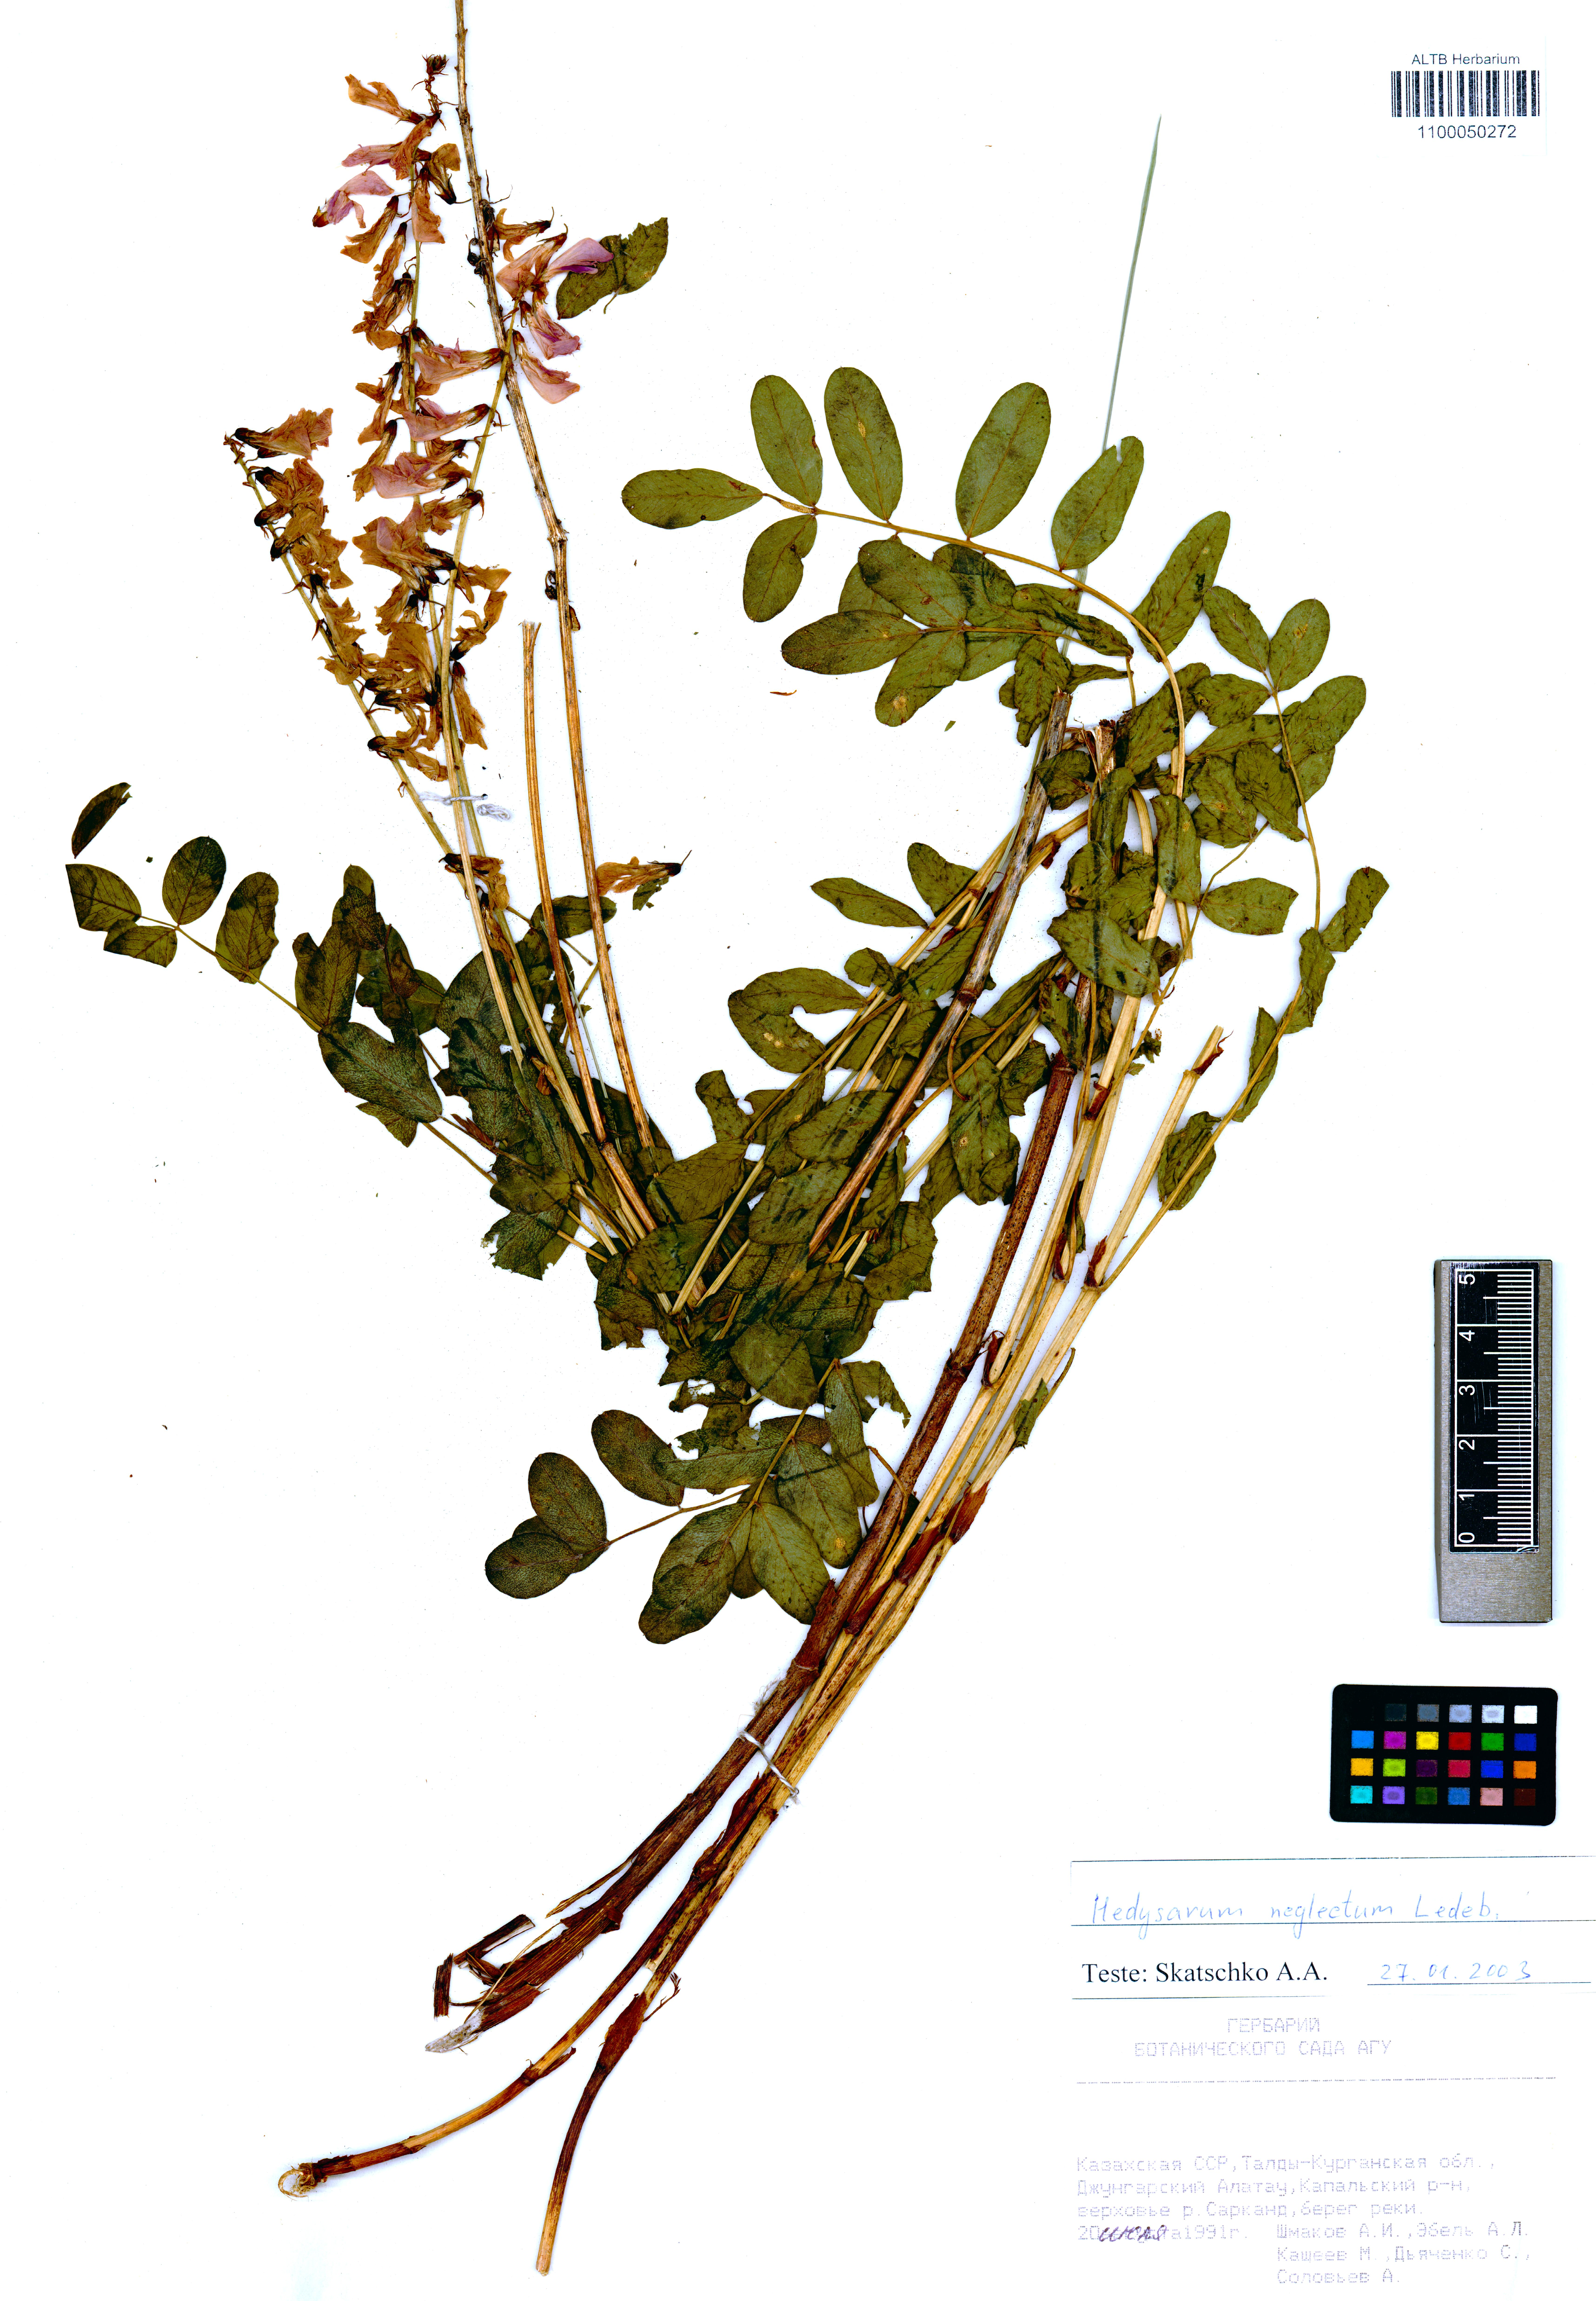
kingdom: Plantae
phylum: Tracheophyta
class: Magnoliopsida
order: Fabales
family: Fabaceae
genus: Hedysarum
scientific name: Hedysarum neglectum
